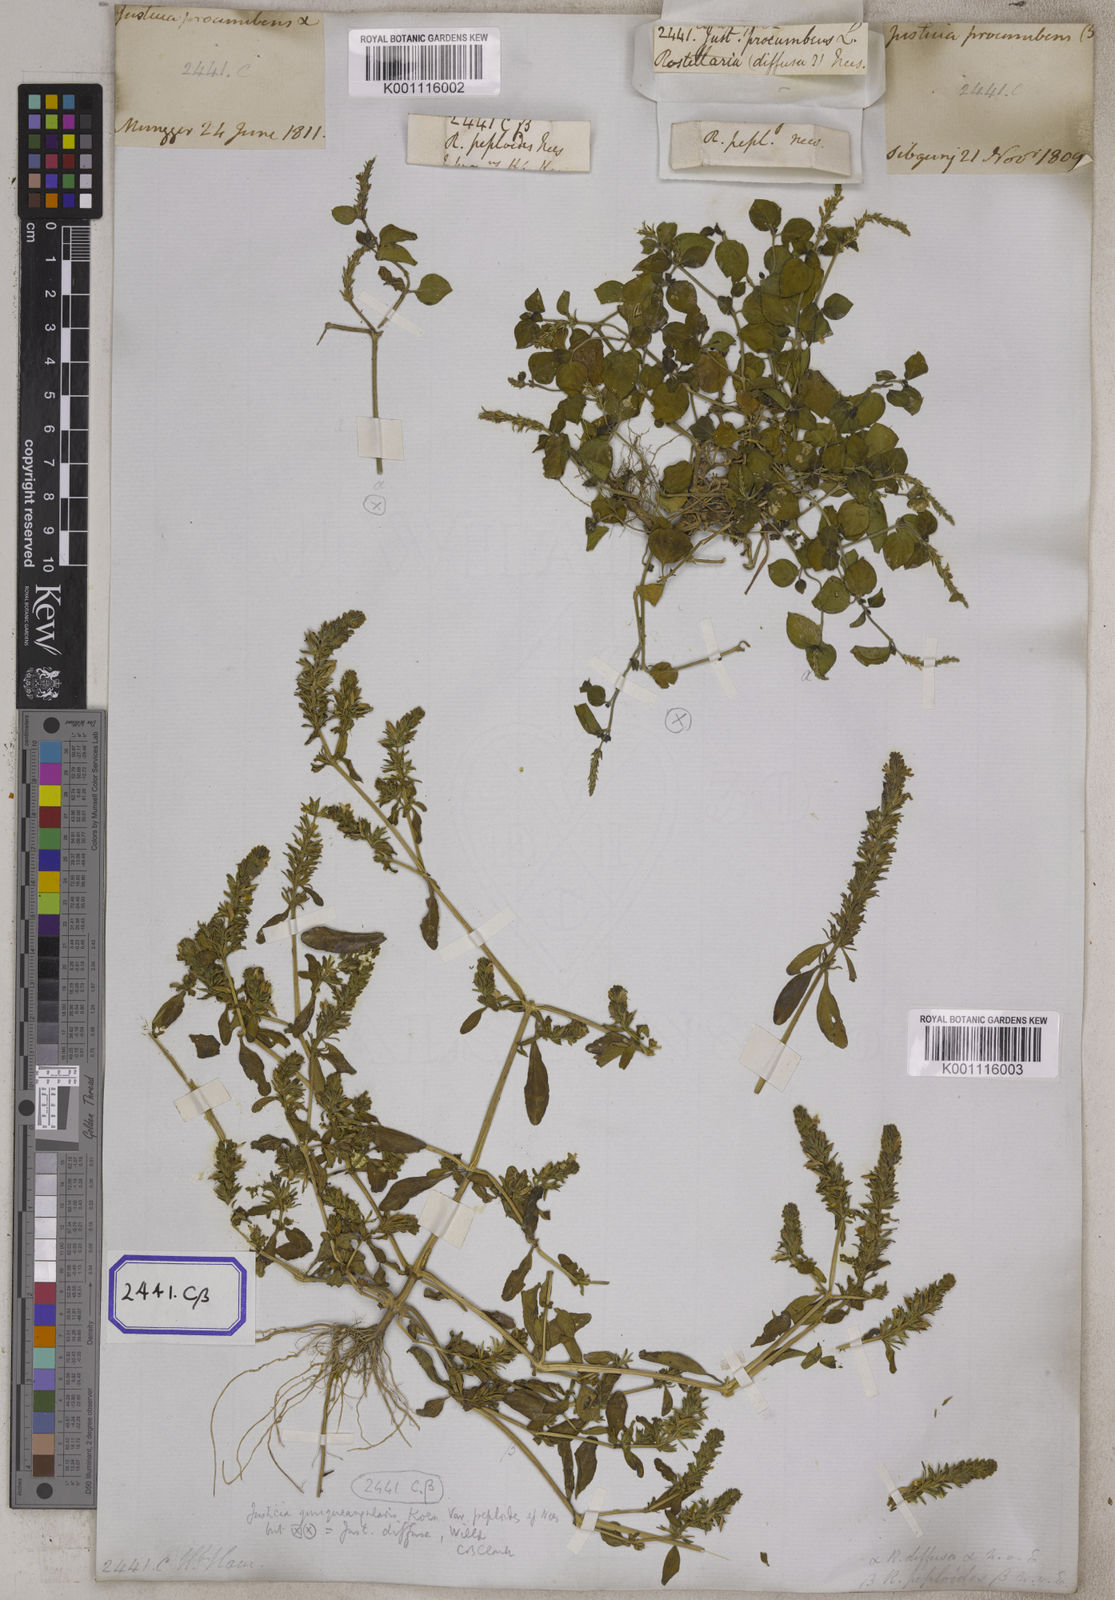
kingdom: Plantae
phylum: Tracheophyta
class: Magnoliopsida
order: Lamiales
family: Acanthaceae
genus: Rostellularia
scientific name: Rostellularia procumbens
